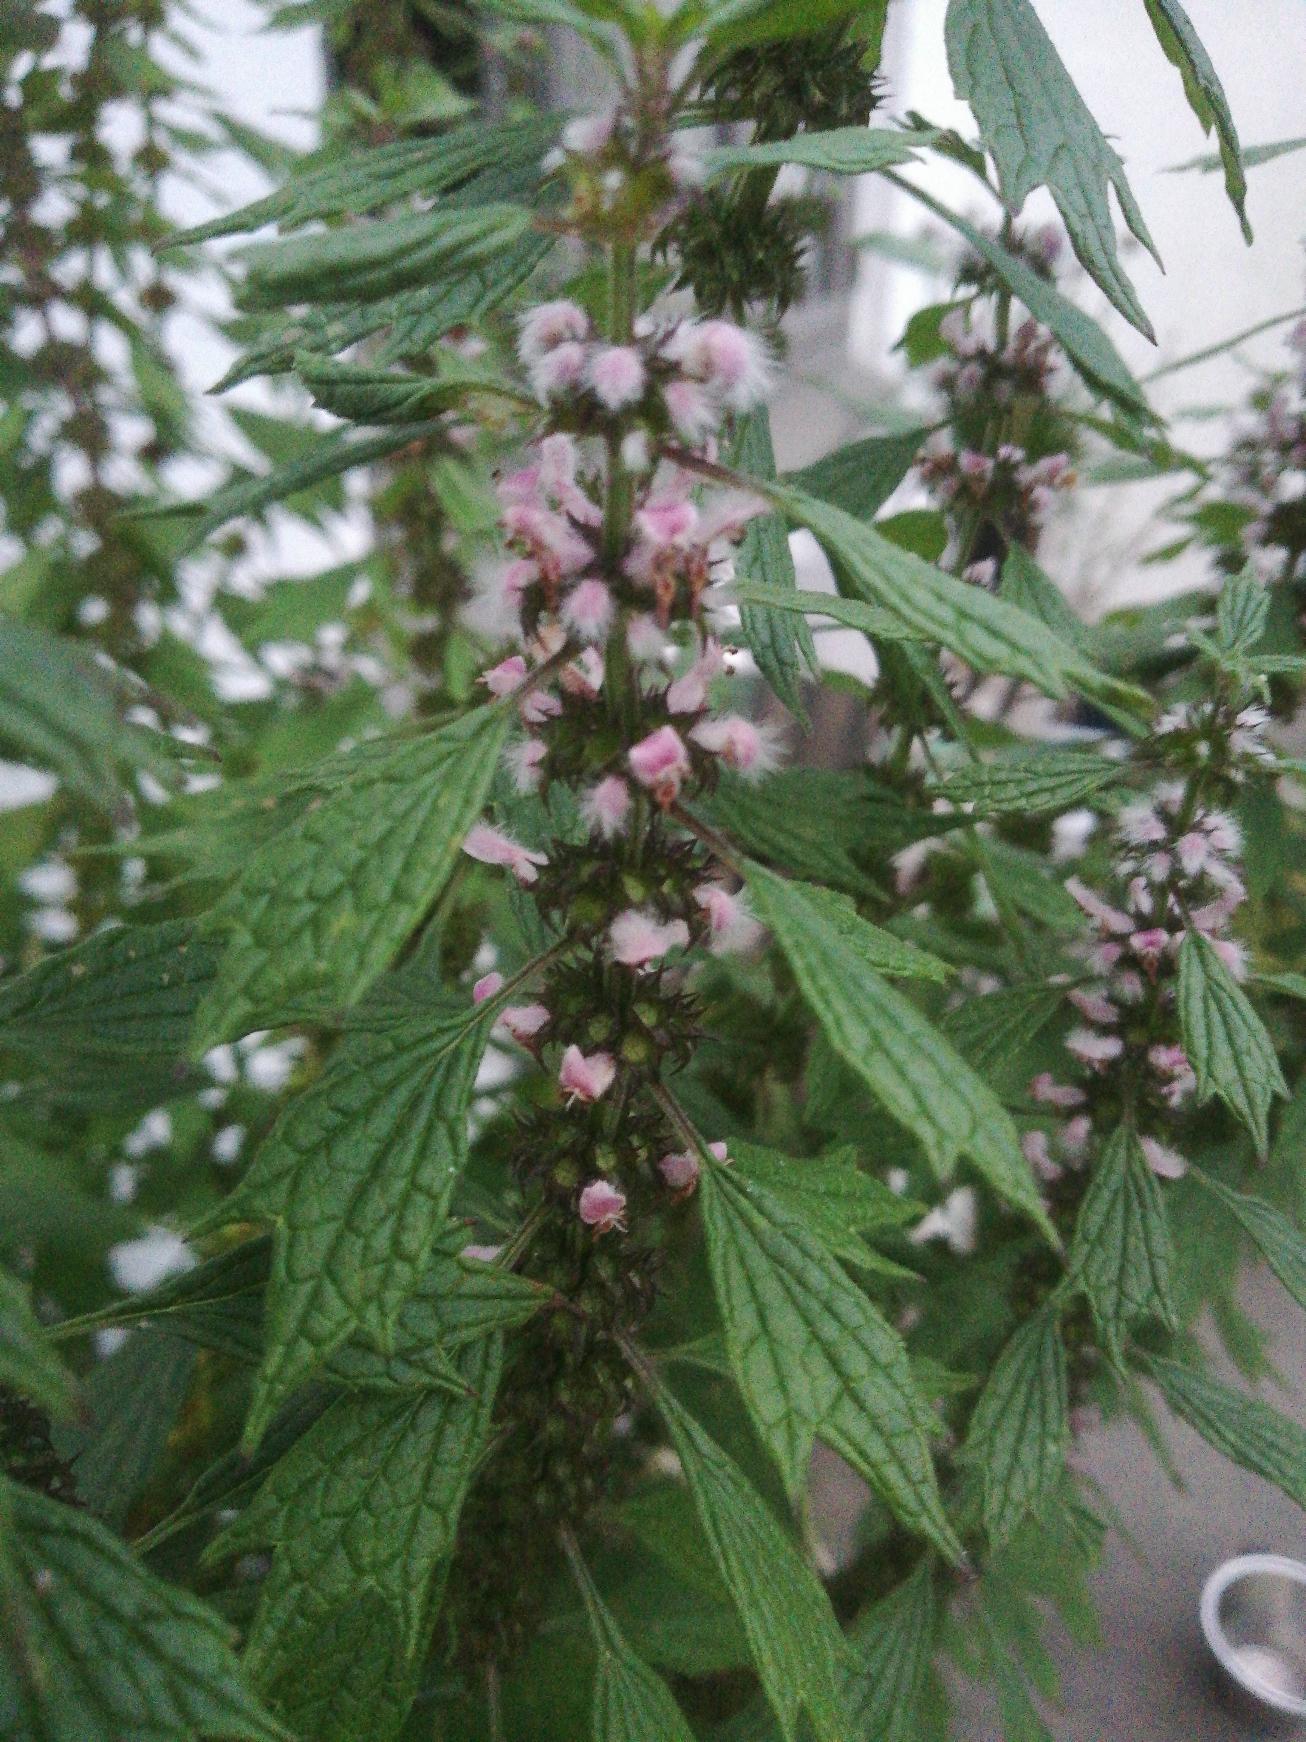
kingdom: Plantae
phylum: Tracheophyta
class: Magnoliopsida
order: Lamiales
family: Lamiaceae
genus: Leonurus
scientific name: Leonurus cardiaca
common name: Hjertespand
